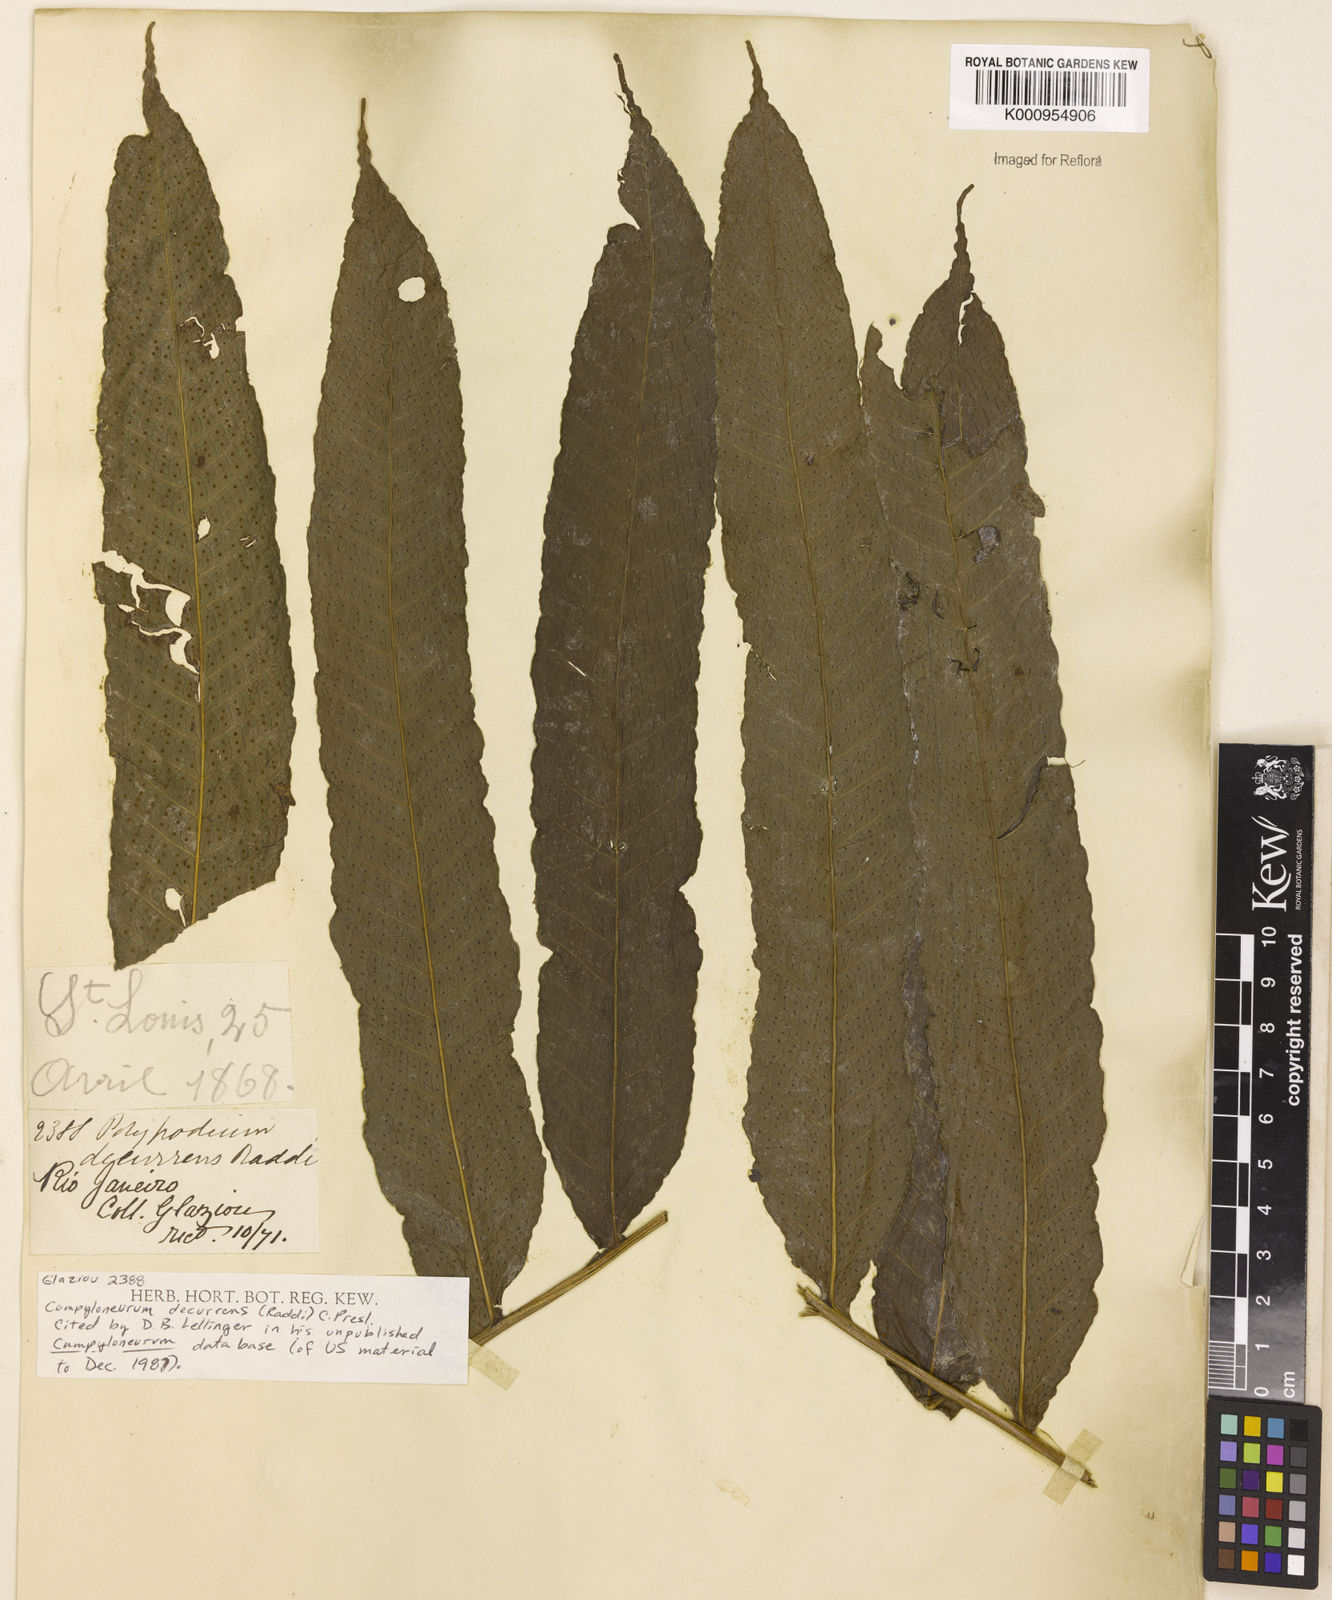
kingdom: Plantae
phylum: Tracheophyta
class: Polypodiopsida
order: Polypodiales
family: Polypodiaceae
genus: Campyloneurum
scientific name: Campyloneurum decurrens
